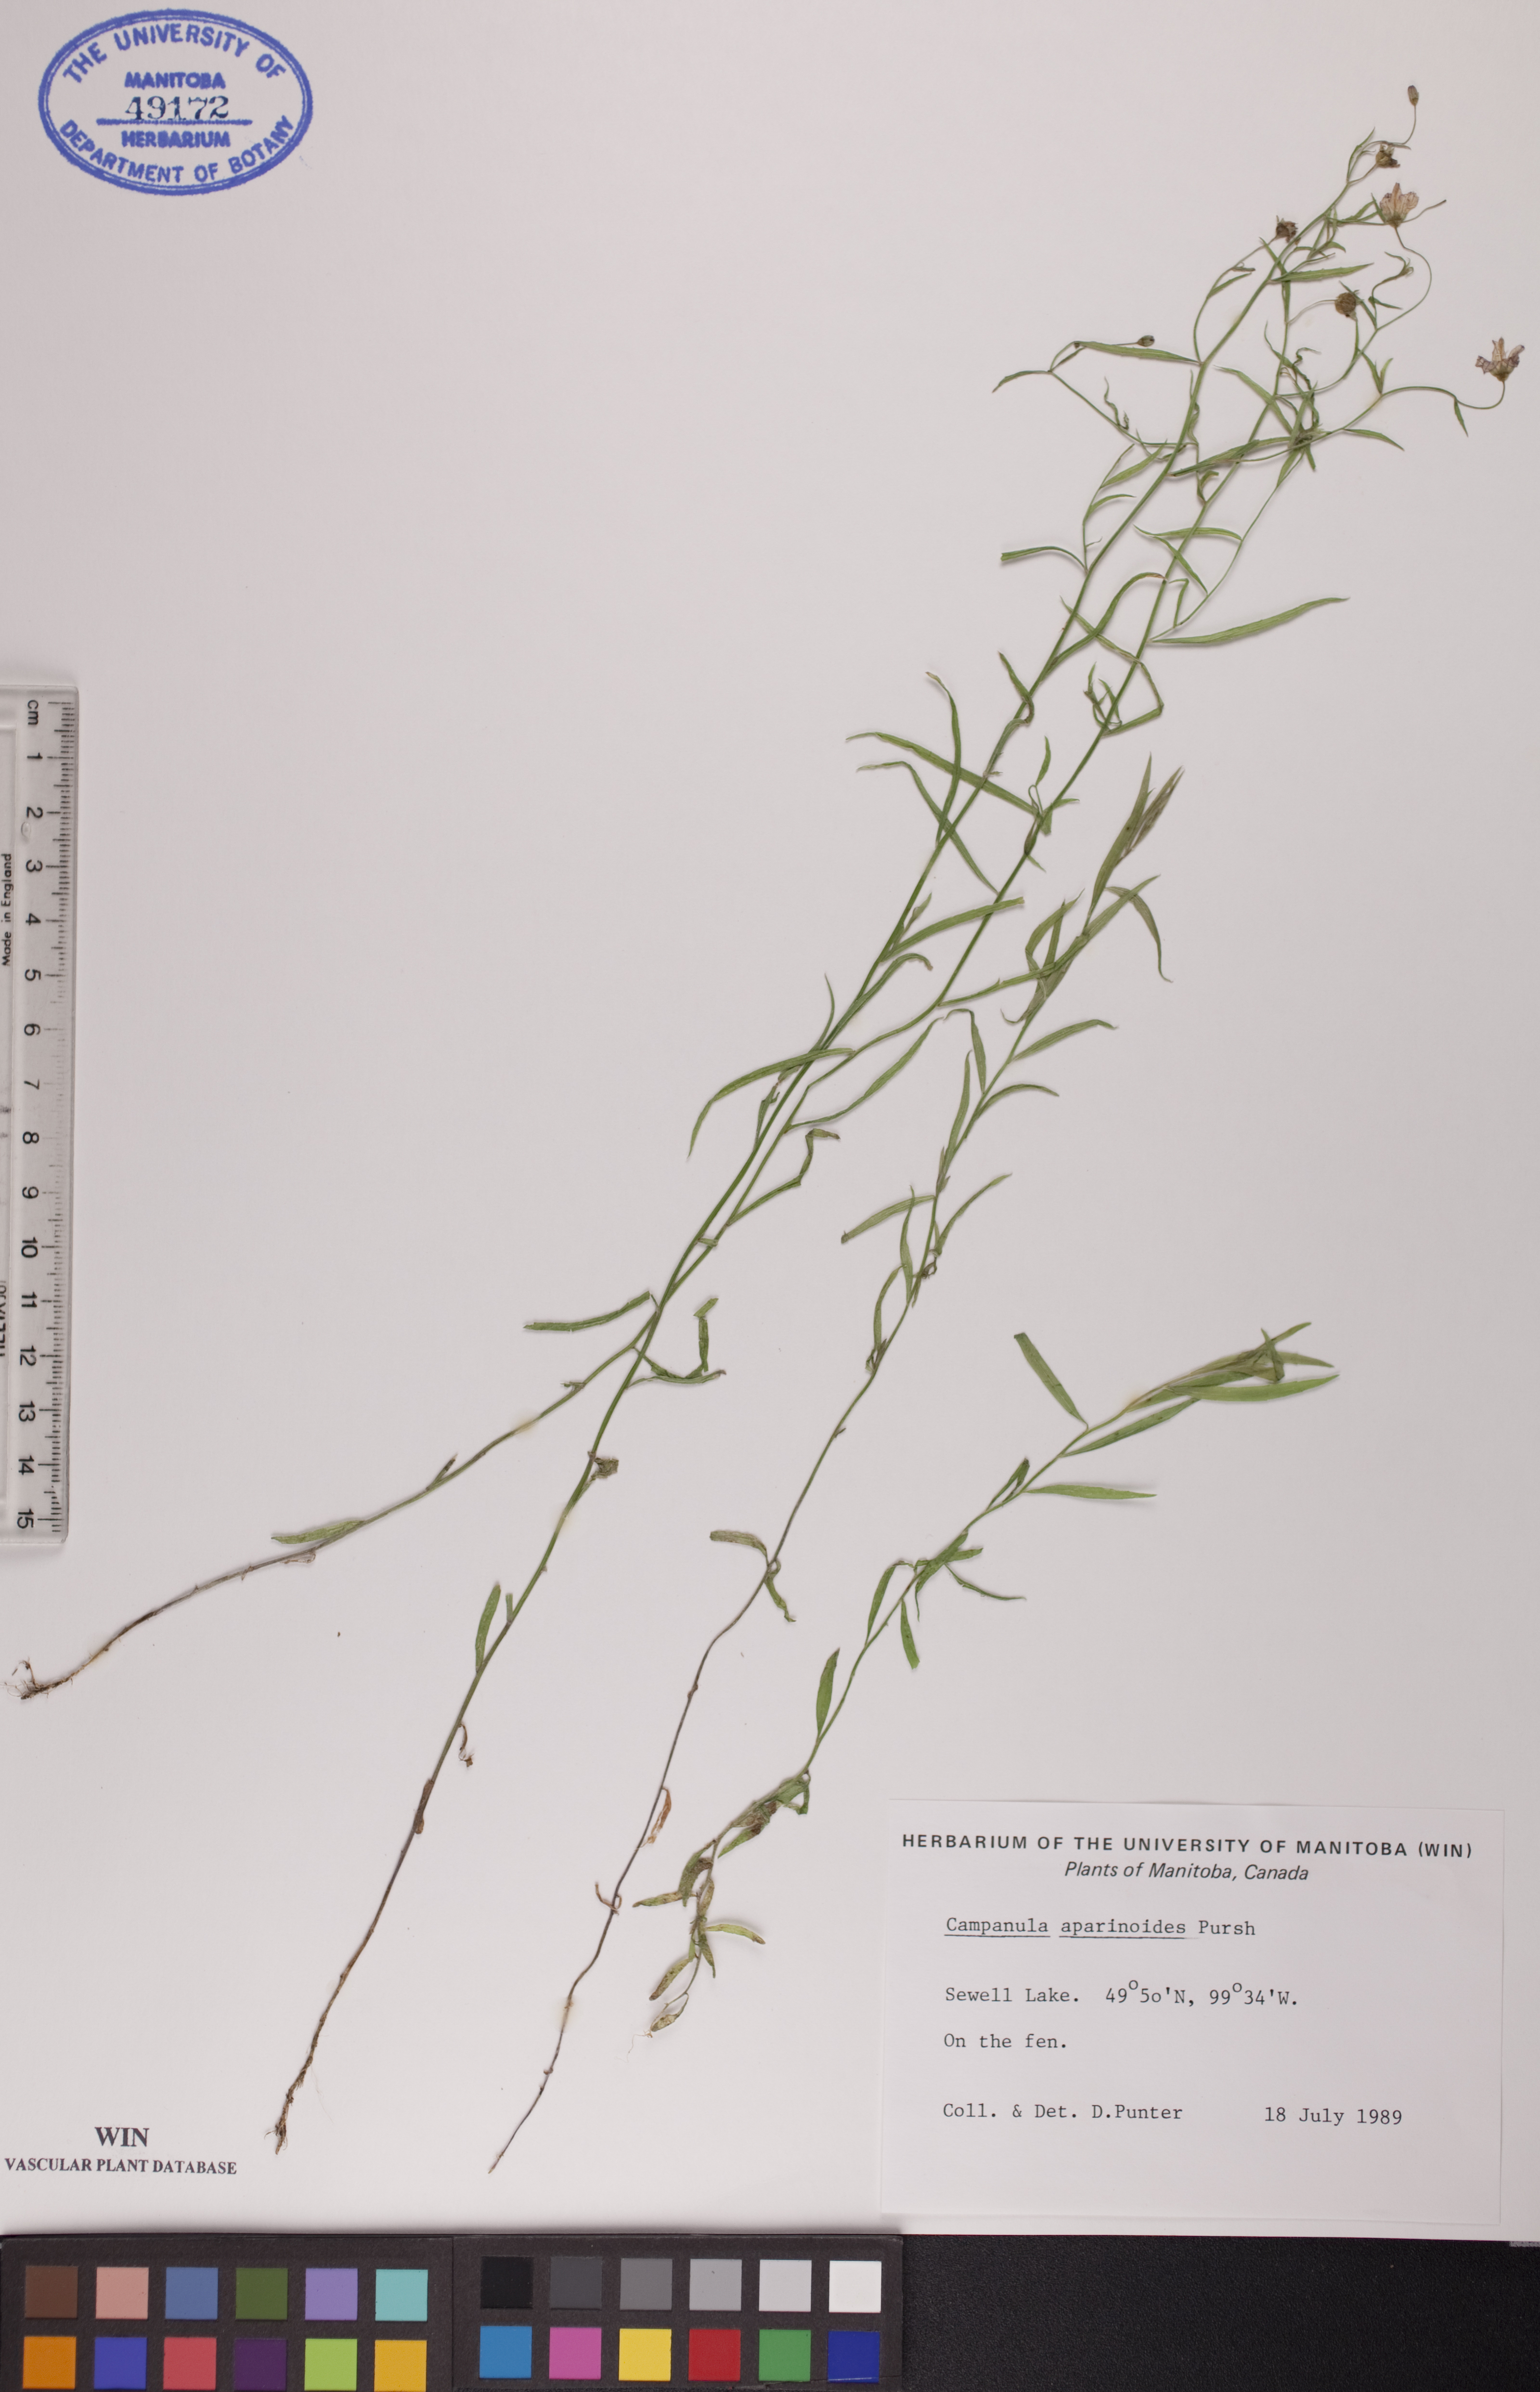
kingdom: Plantae
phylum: Tracheophyta
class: Magnoliopsida
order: Asterales
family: Campanulaceae
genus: Palustricodon
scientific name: Palustricodon aparinoides
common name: Bedstraw bellflower
